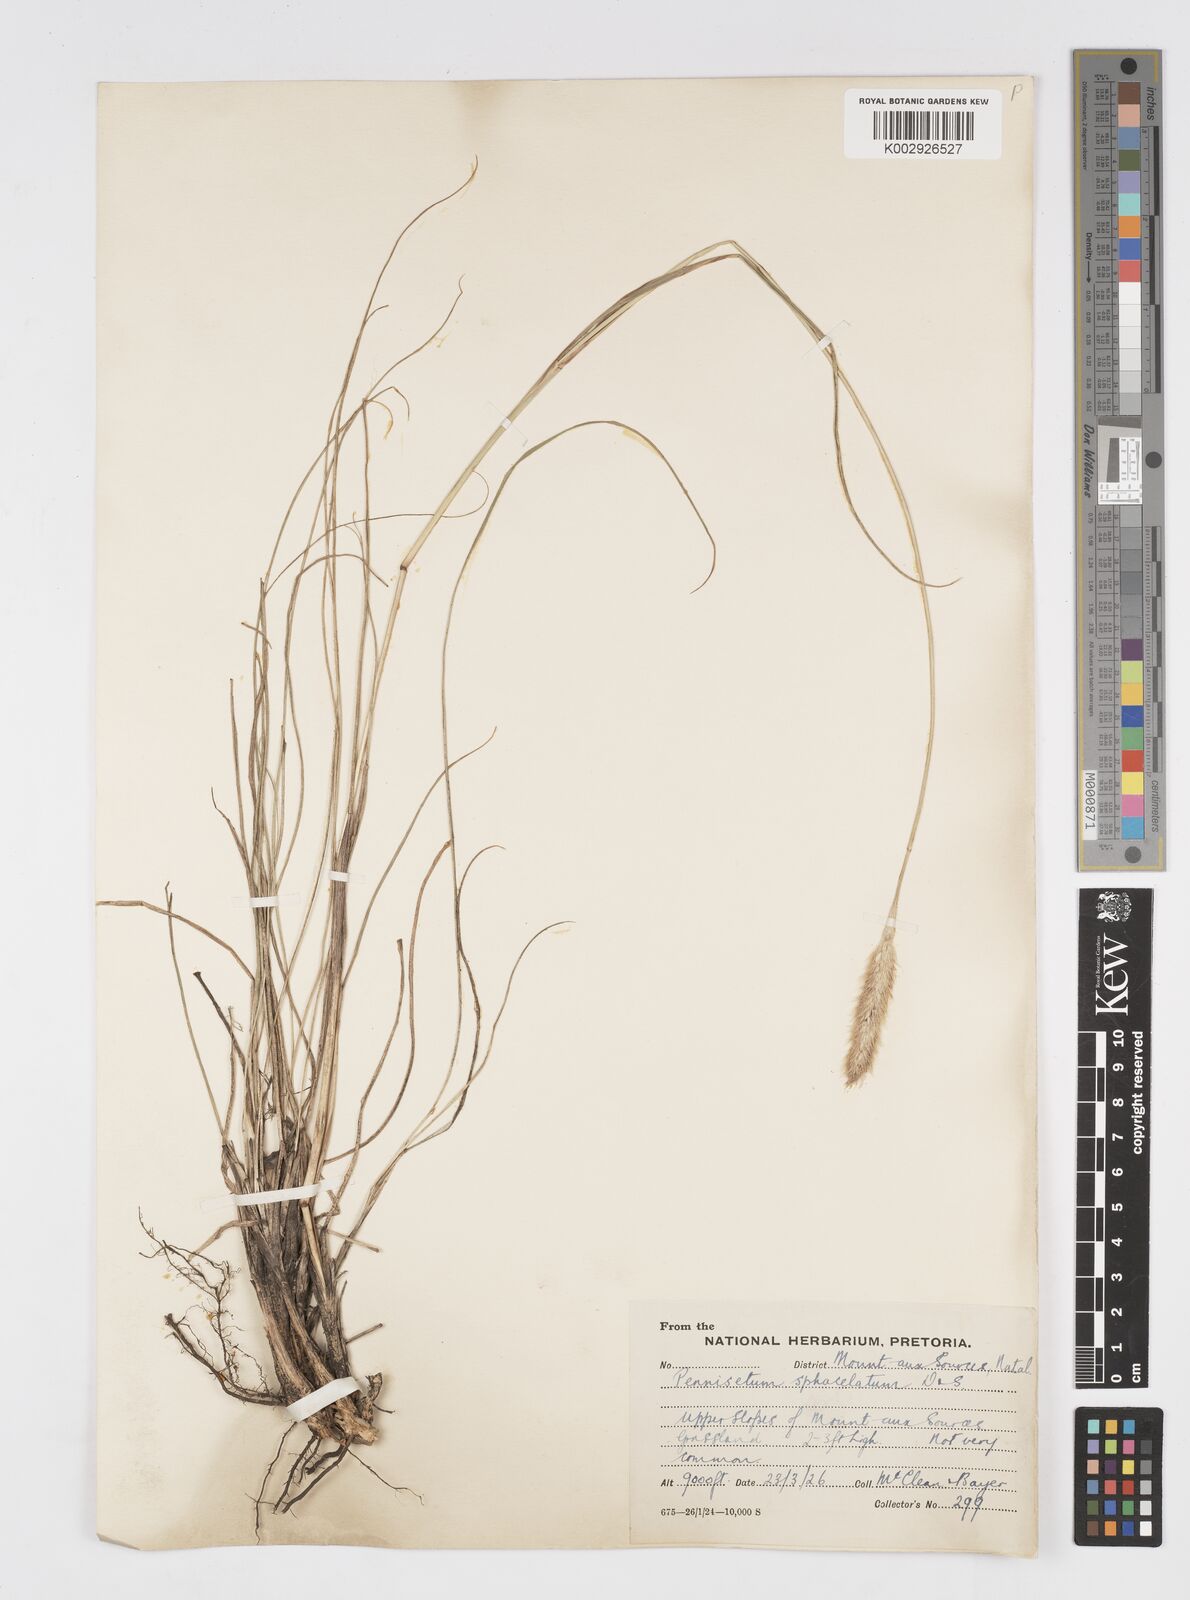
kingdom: Plantae
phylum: Tracheophyta
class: Liliopsida
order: Poales
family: Poaceae
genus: Cenchrus
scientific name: Cenchrus sphacelatus
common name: Bulgras
